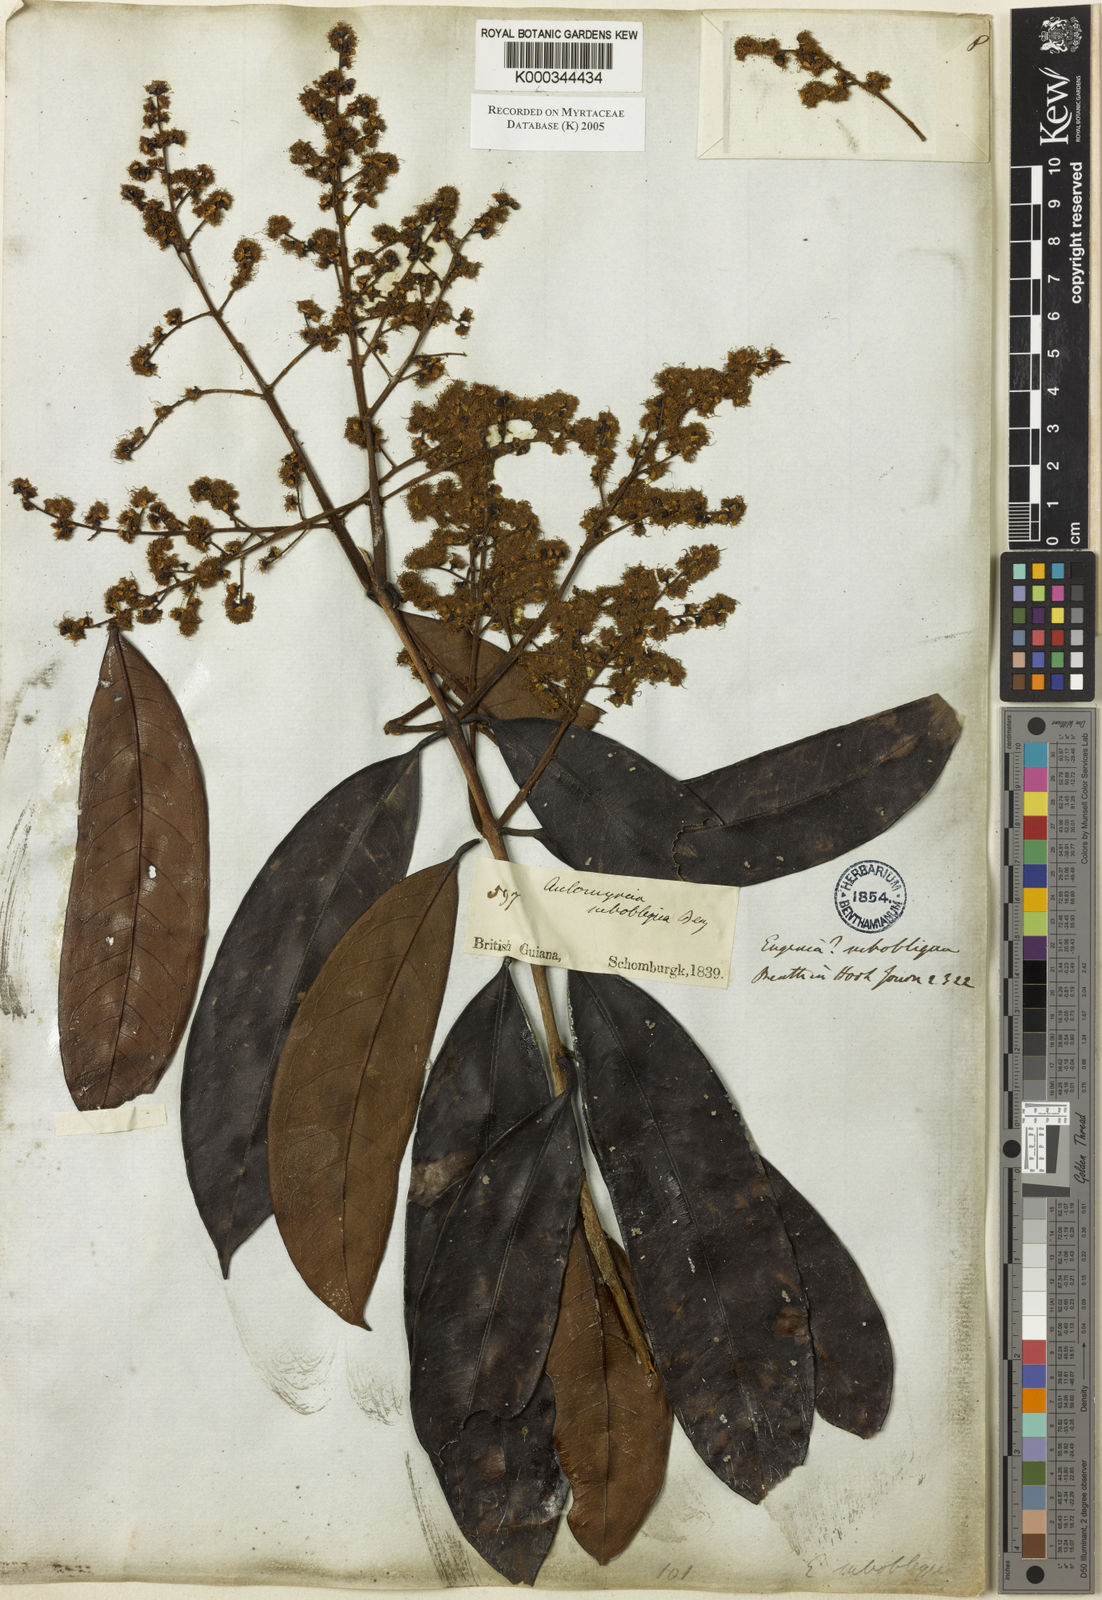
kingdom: Plantae
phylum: Tracheophyta
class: Magnoliopsida
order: Myrtales
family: Myrtaceae
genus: Myrcia
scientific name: Myrcia subobliqua
